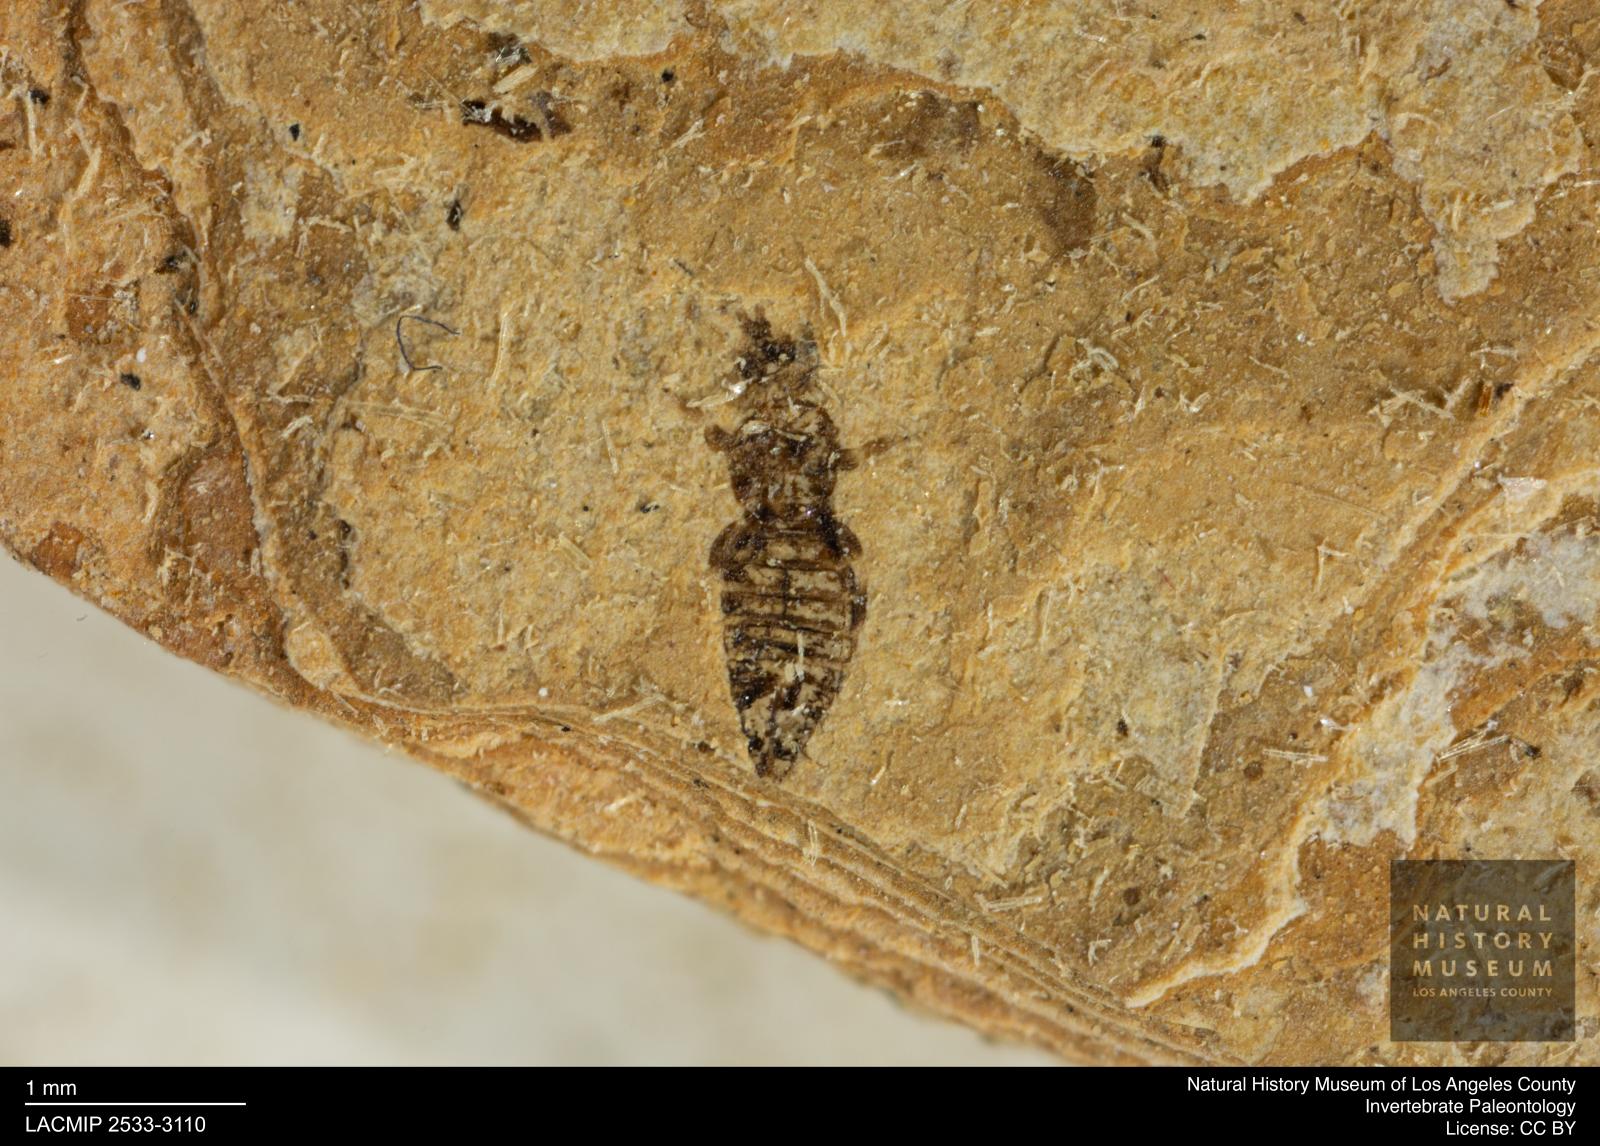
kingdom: Animalia
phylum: Arthropoda
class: Insecta
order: Thysanoptera
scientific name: Thysanoptera
